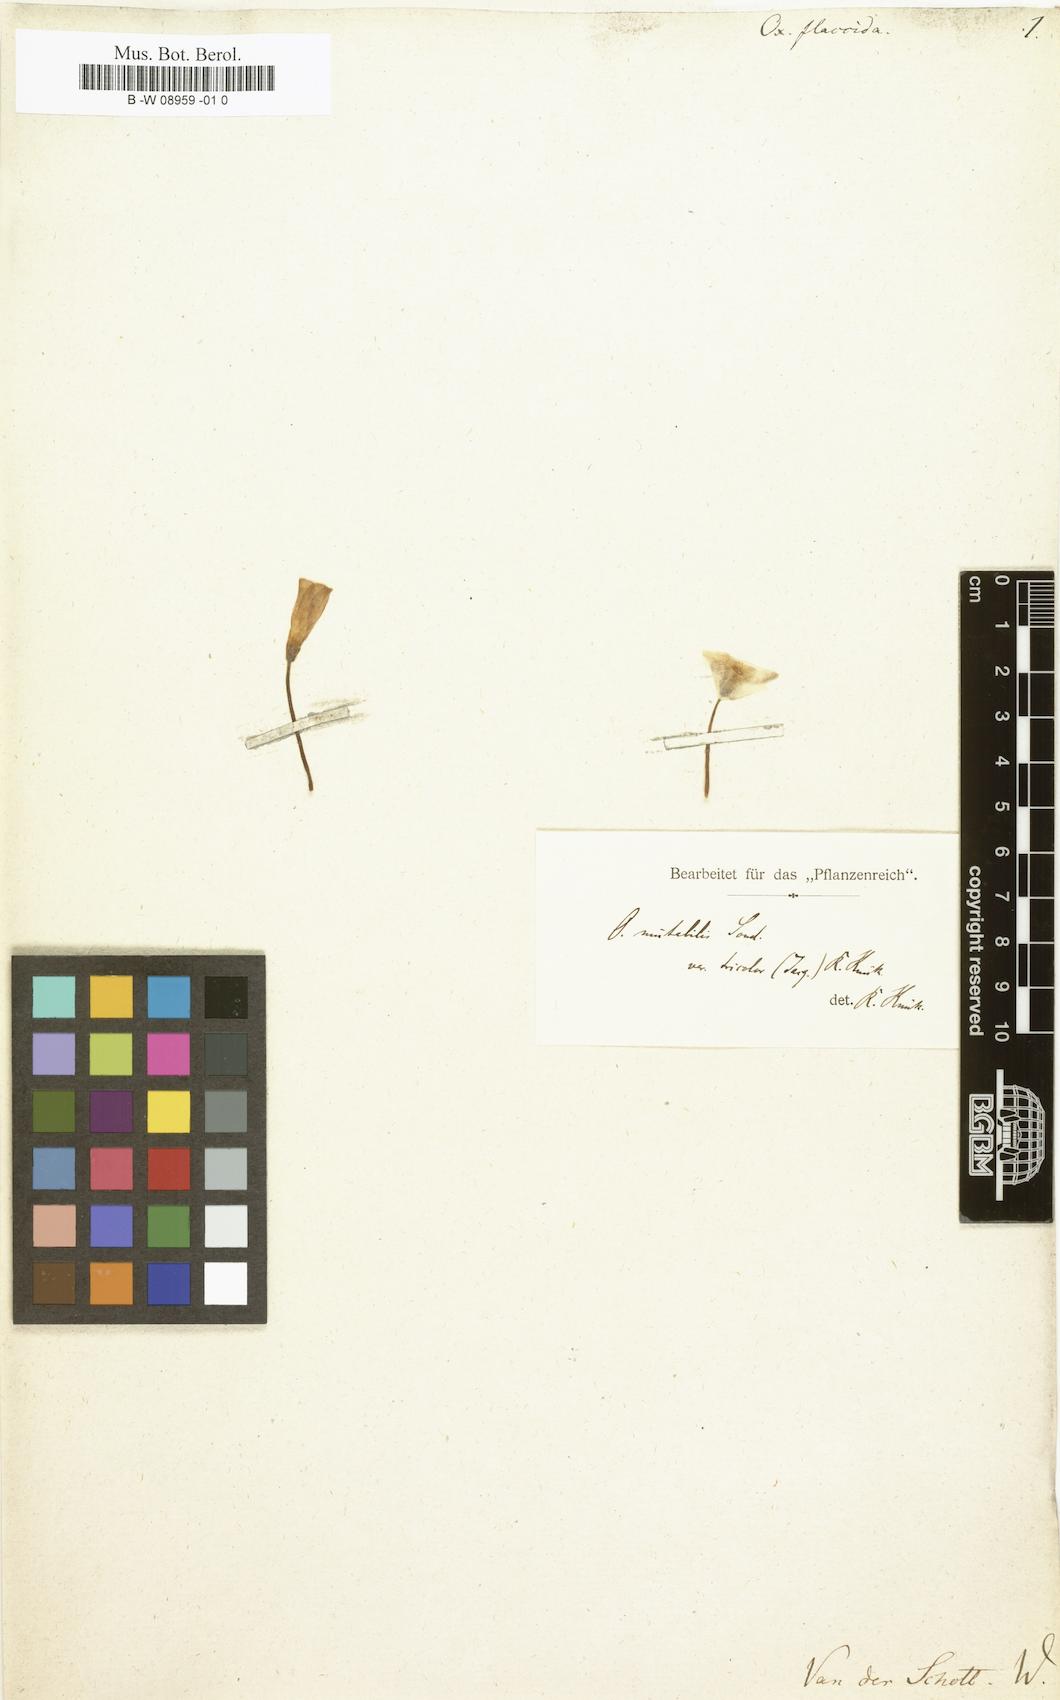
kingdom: Plantae
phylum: Tracheophyta
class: Magnoliopsida
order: Oxalidales
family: Oxalidaceae
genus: Oxalis
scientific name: Oxalis ambigua
